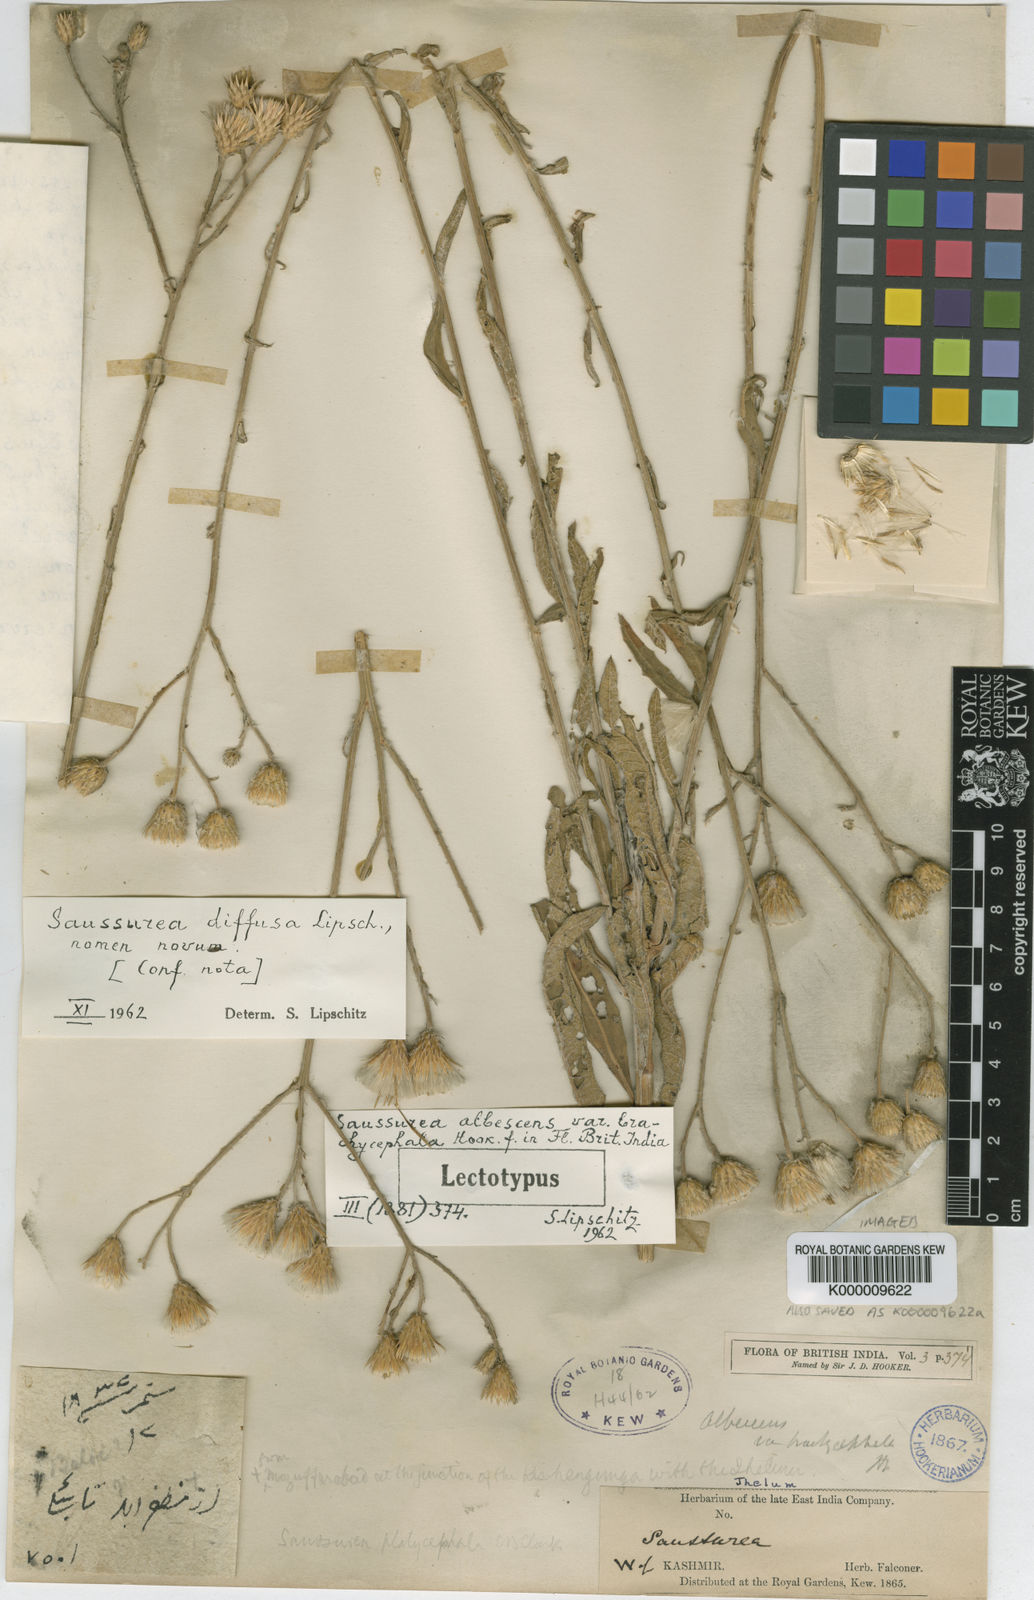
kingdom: Plantae
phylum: Tracheophyta
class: Magnoliopsida
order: Asterales
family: Asteraceae
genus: Saussurea
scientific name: Saussurea diffusa
